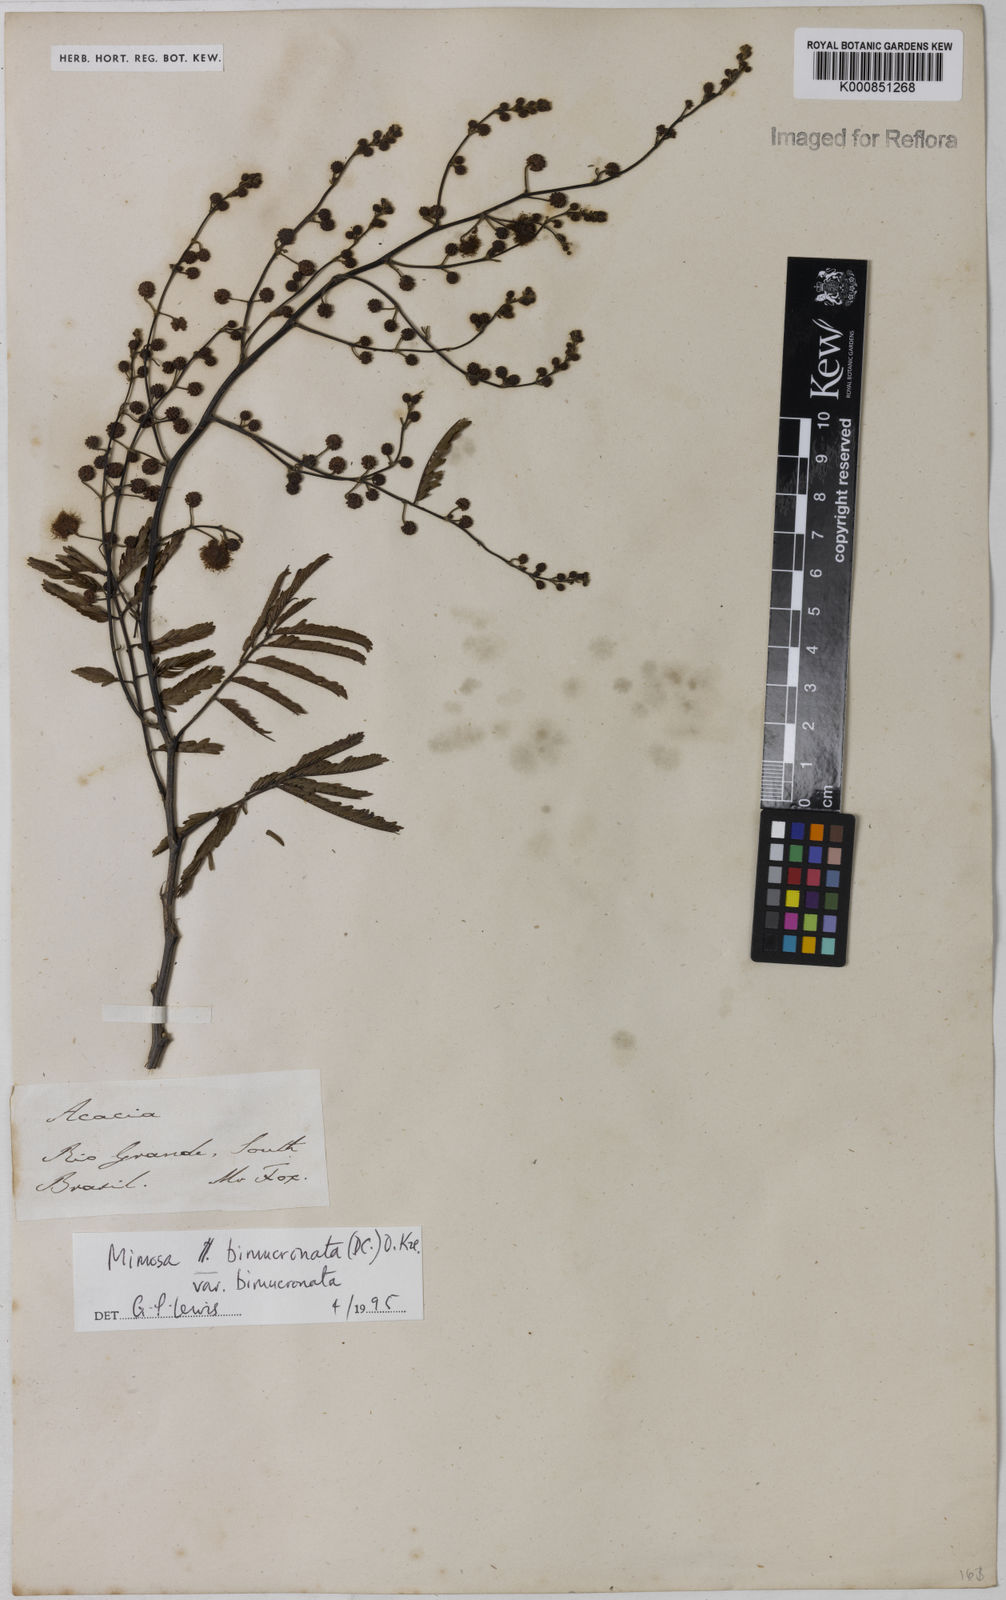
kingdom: Plantae
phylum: Tracheophyta
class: Magnoliopsida
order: Fabales
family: Fabaceae
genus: Mimosa
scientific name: Mimosa bimucronata
